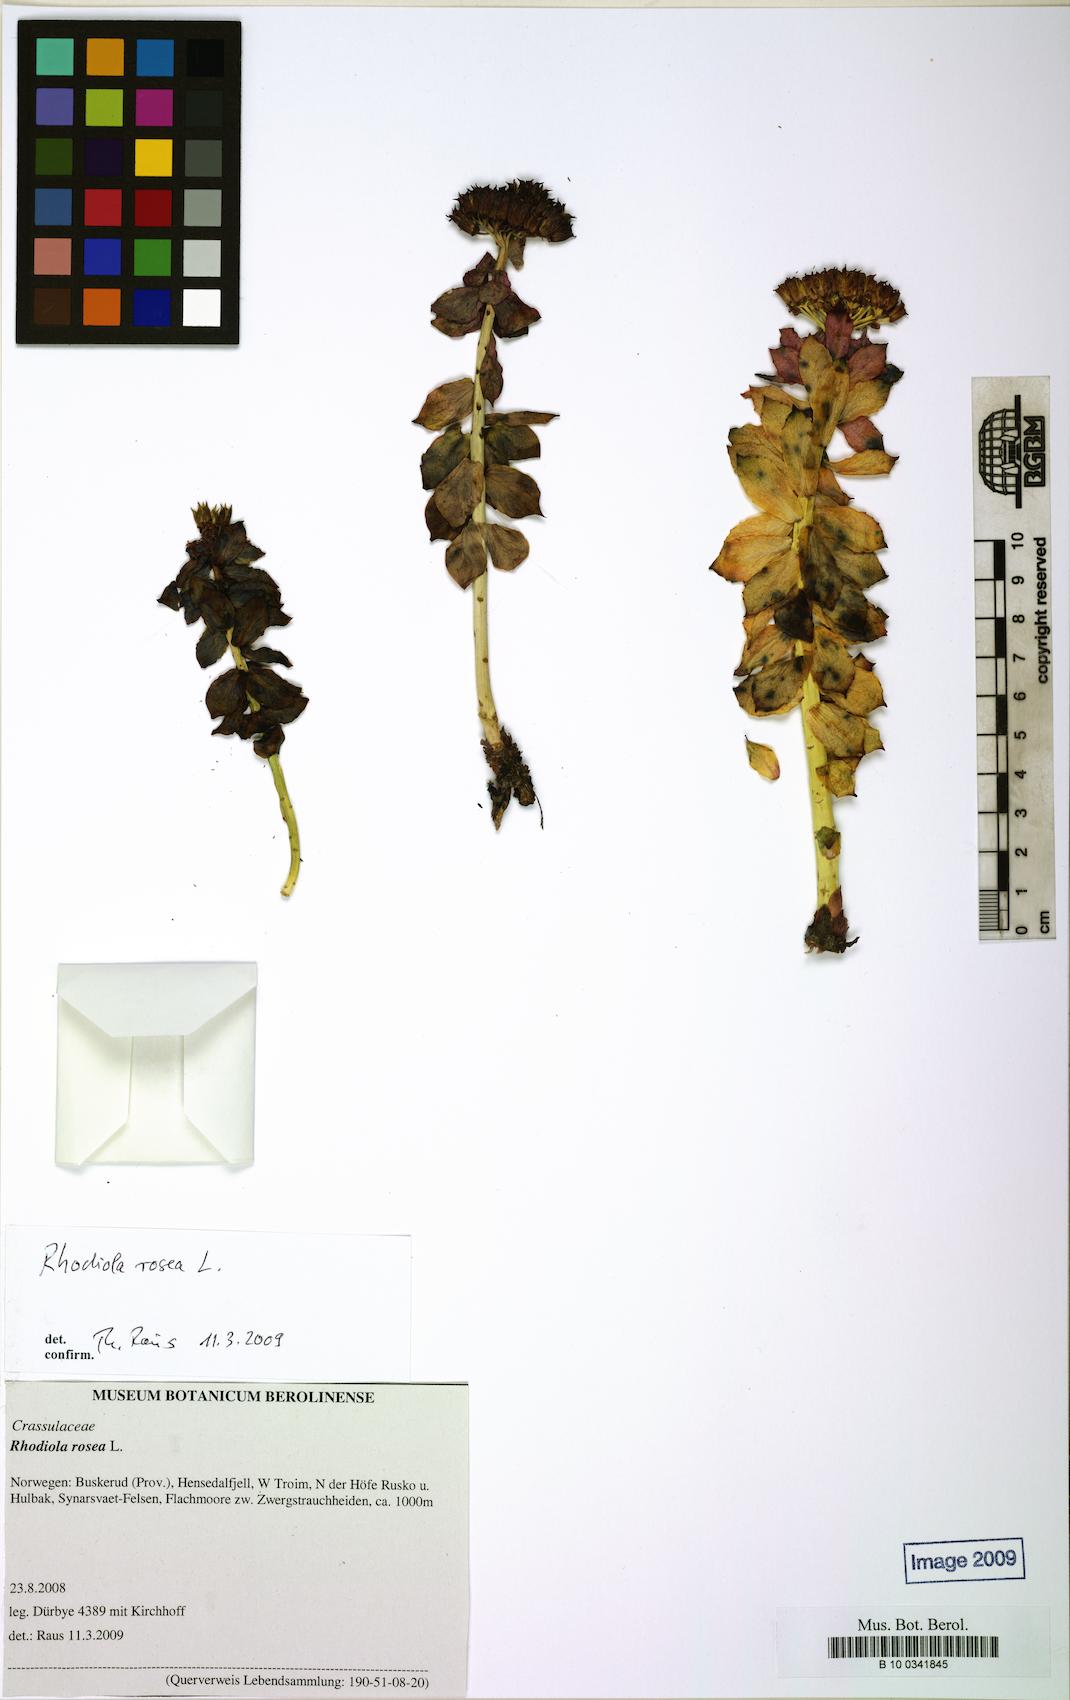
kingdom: Plantae
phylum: Tracheophyta
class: Magnoliopsida
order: Saxifragales
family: Crassulaceae
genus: Rhodiola
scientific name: Rhodiola rosea
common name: Roseroot
